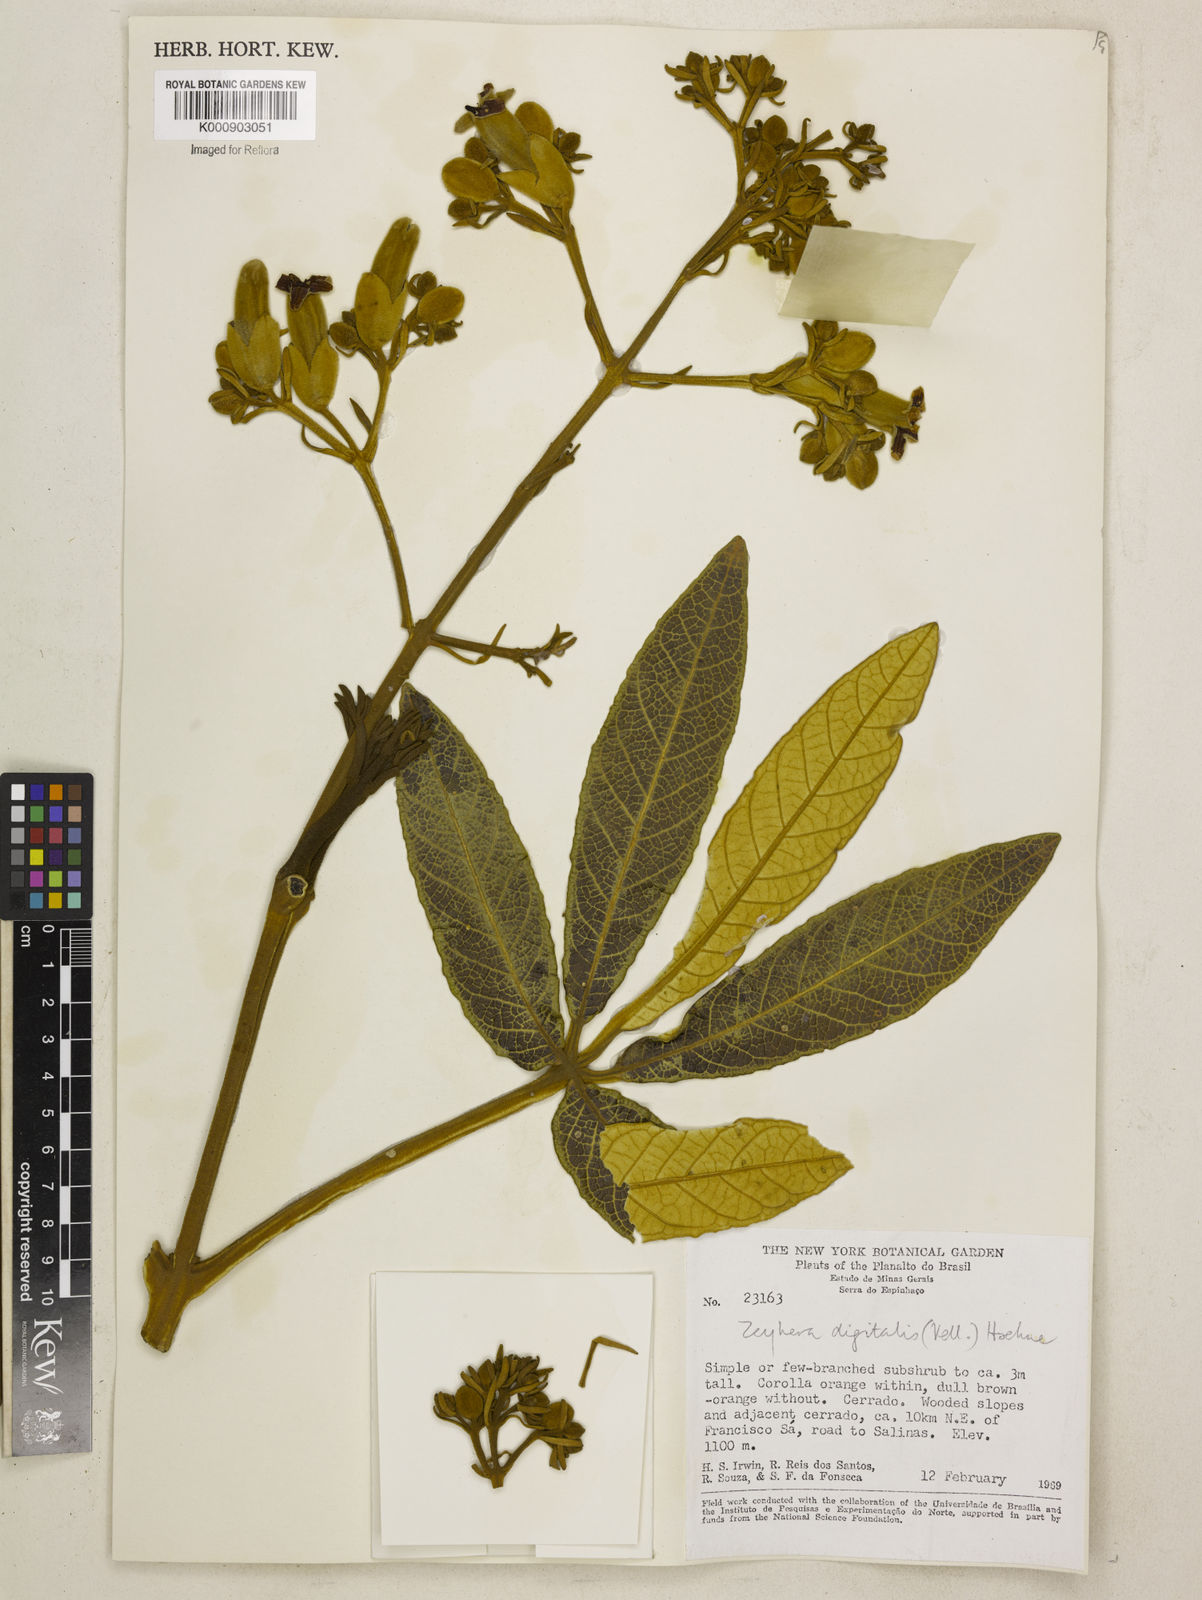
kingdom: Plantae
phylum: Tracheophyta
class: Magnoliopsida
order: Lamiales
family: Bignoniaceae
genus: Zeyheria
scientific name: Zeyheria
